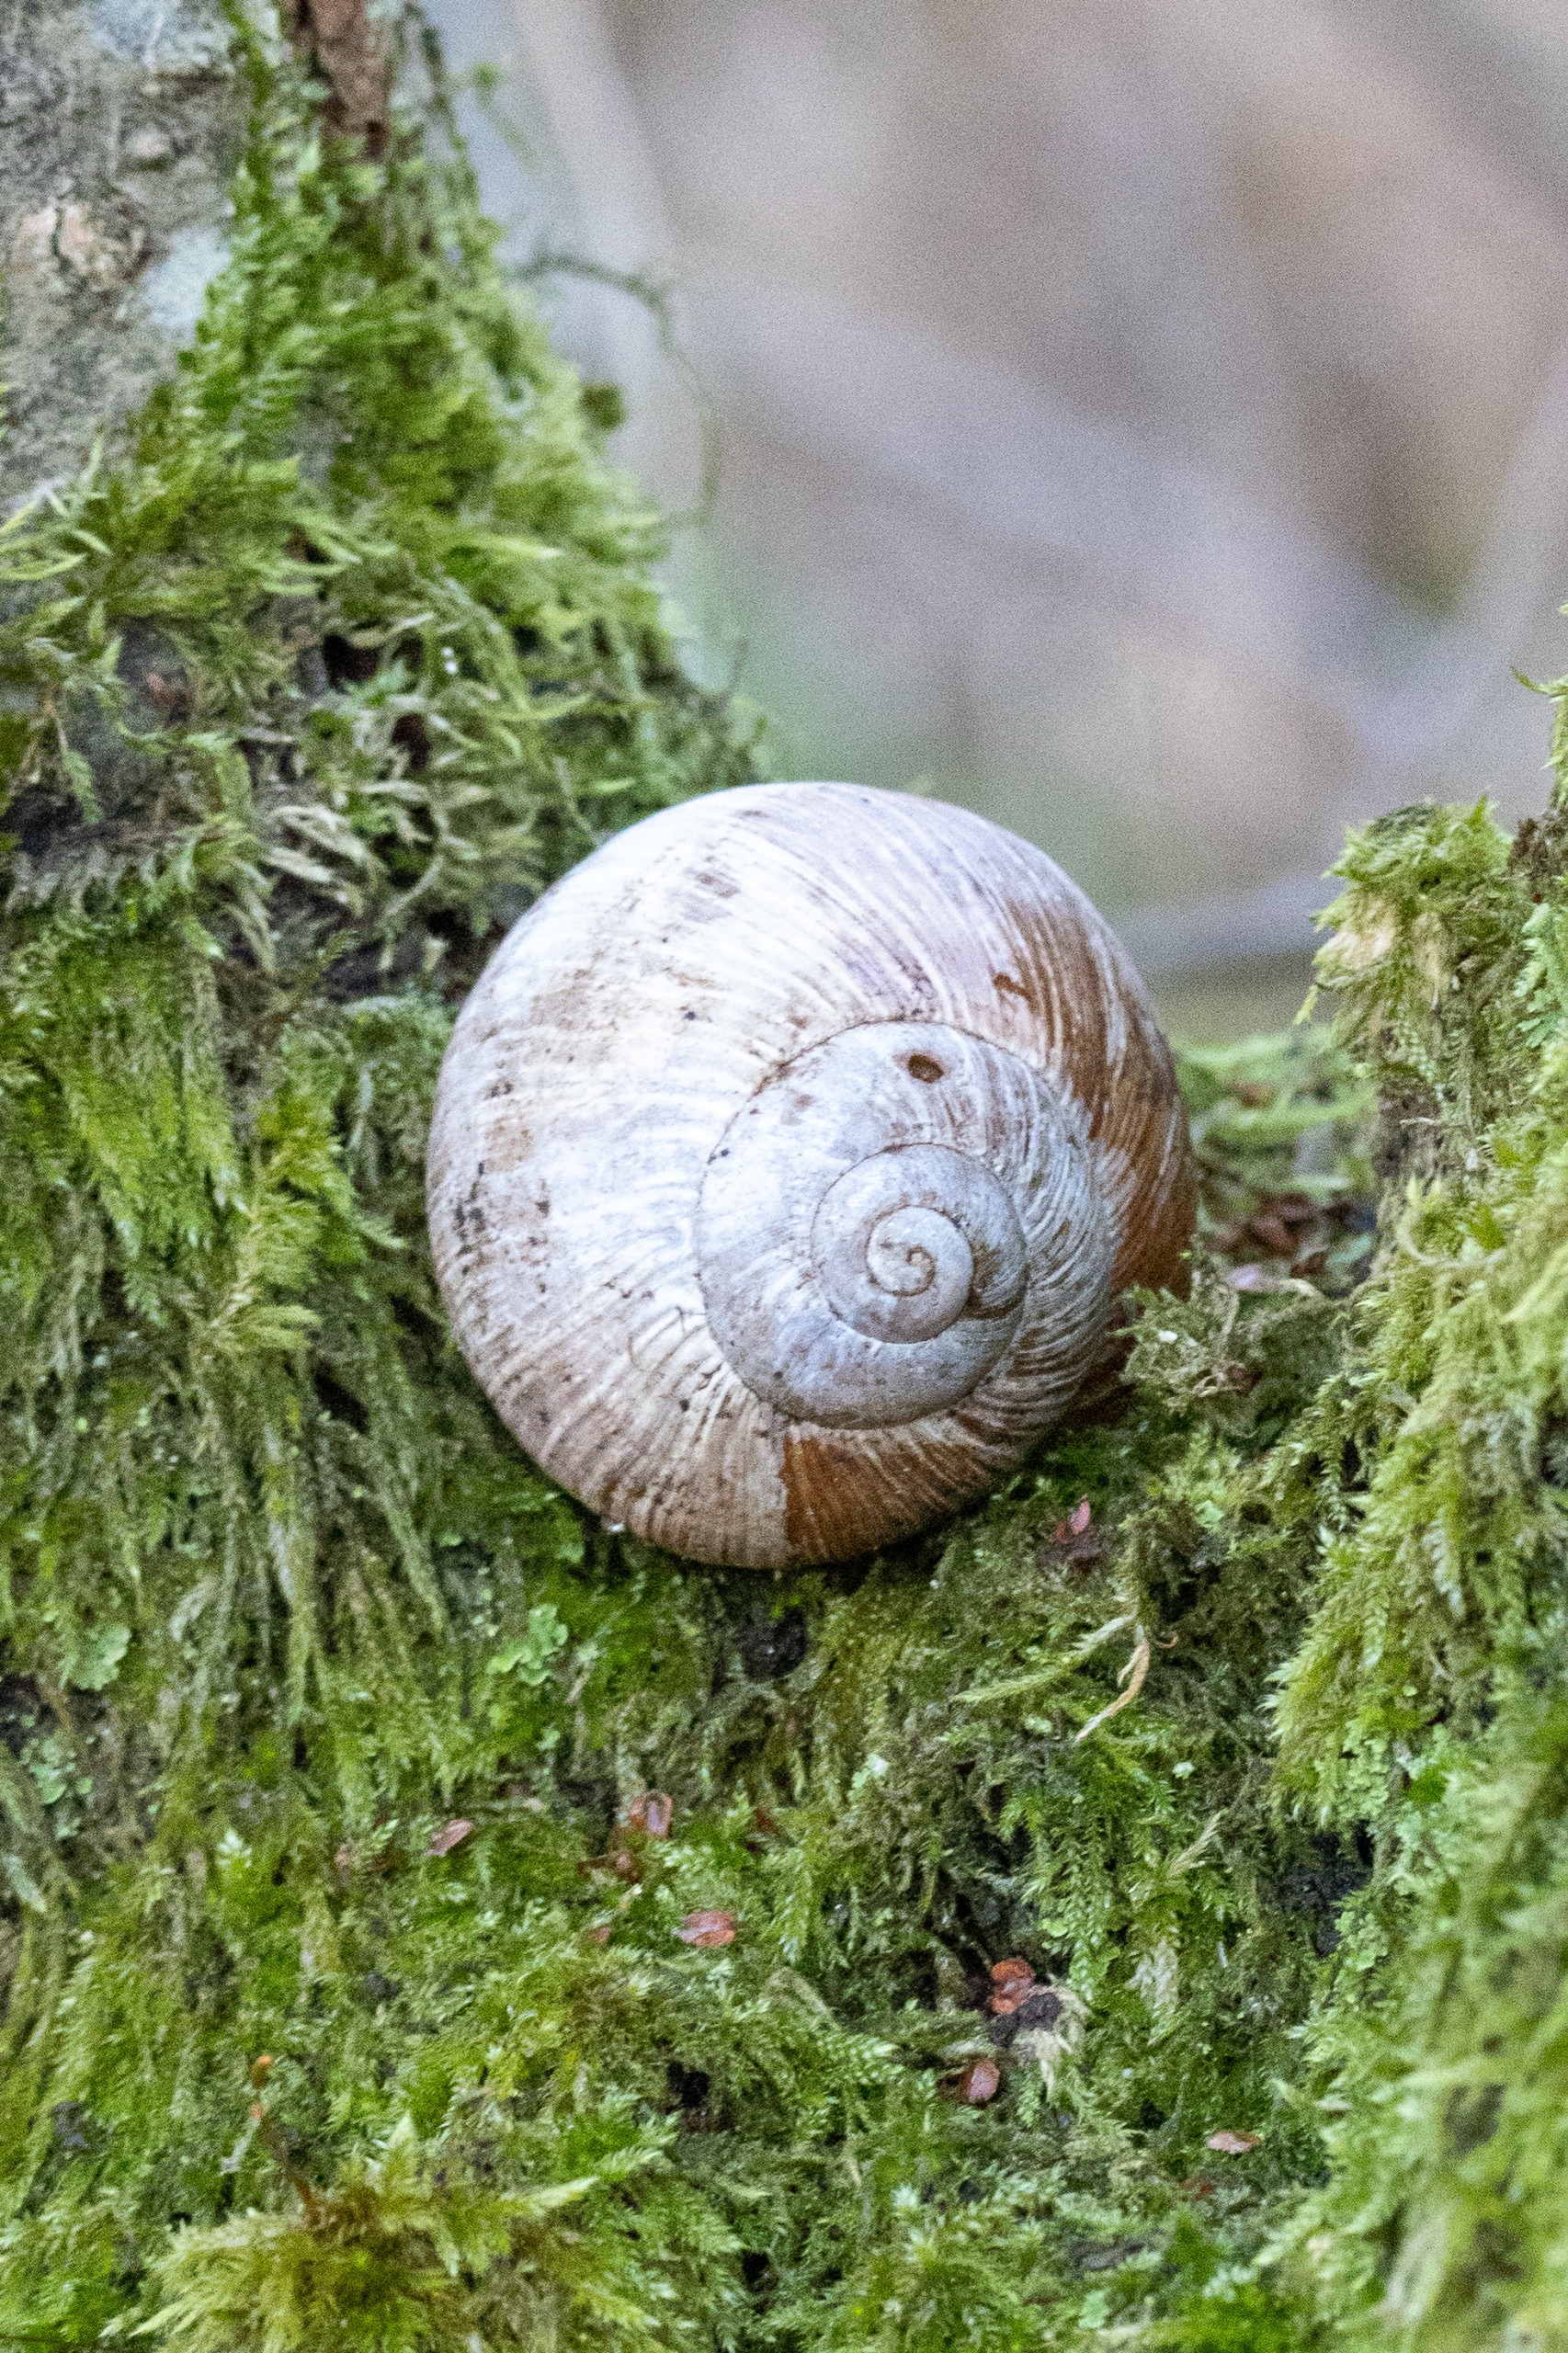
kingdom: Animalia
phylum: Mollusca
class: Gastropoda
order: Stylommatophora
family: Helicidae
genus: Helix
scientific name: Helix pomatia
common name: Vinbjergsnegl
